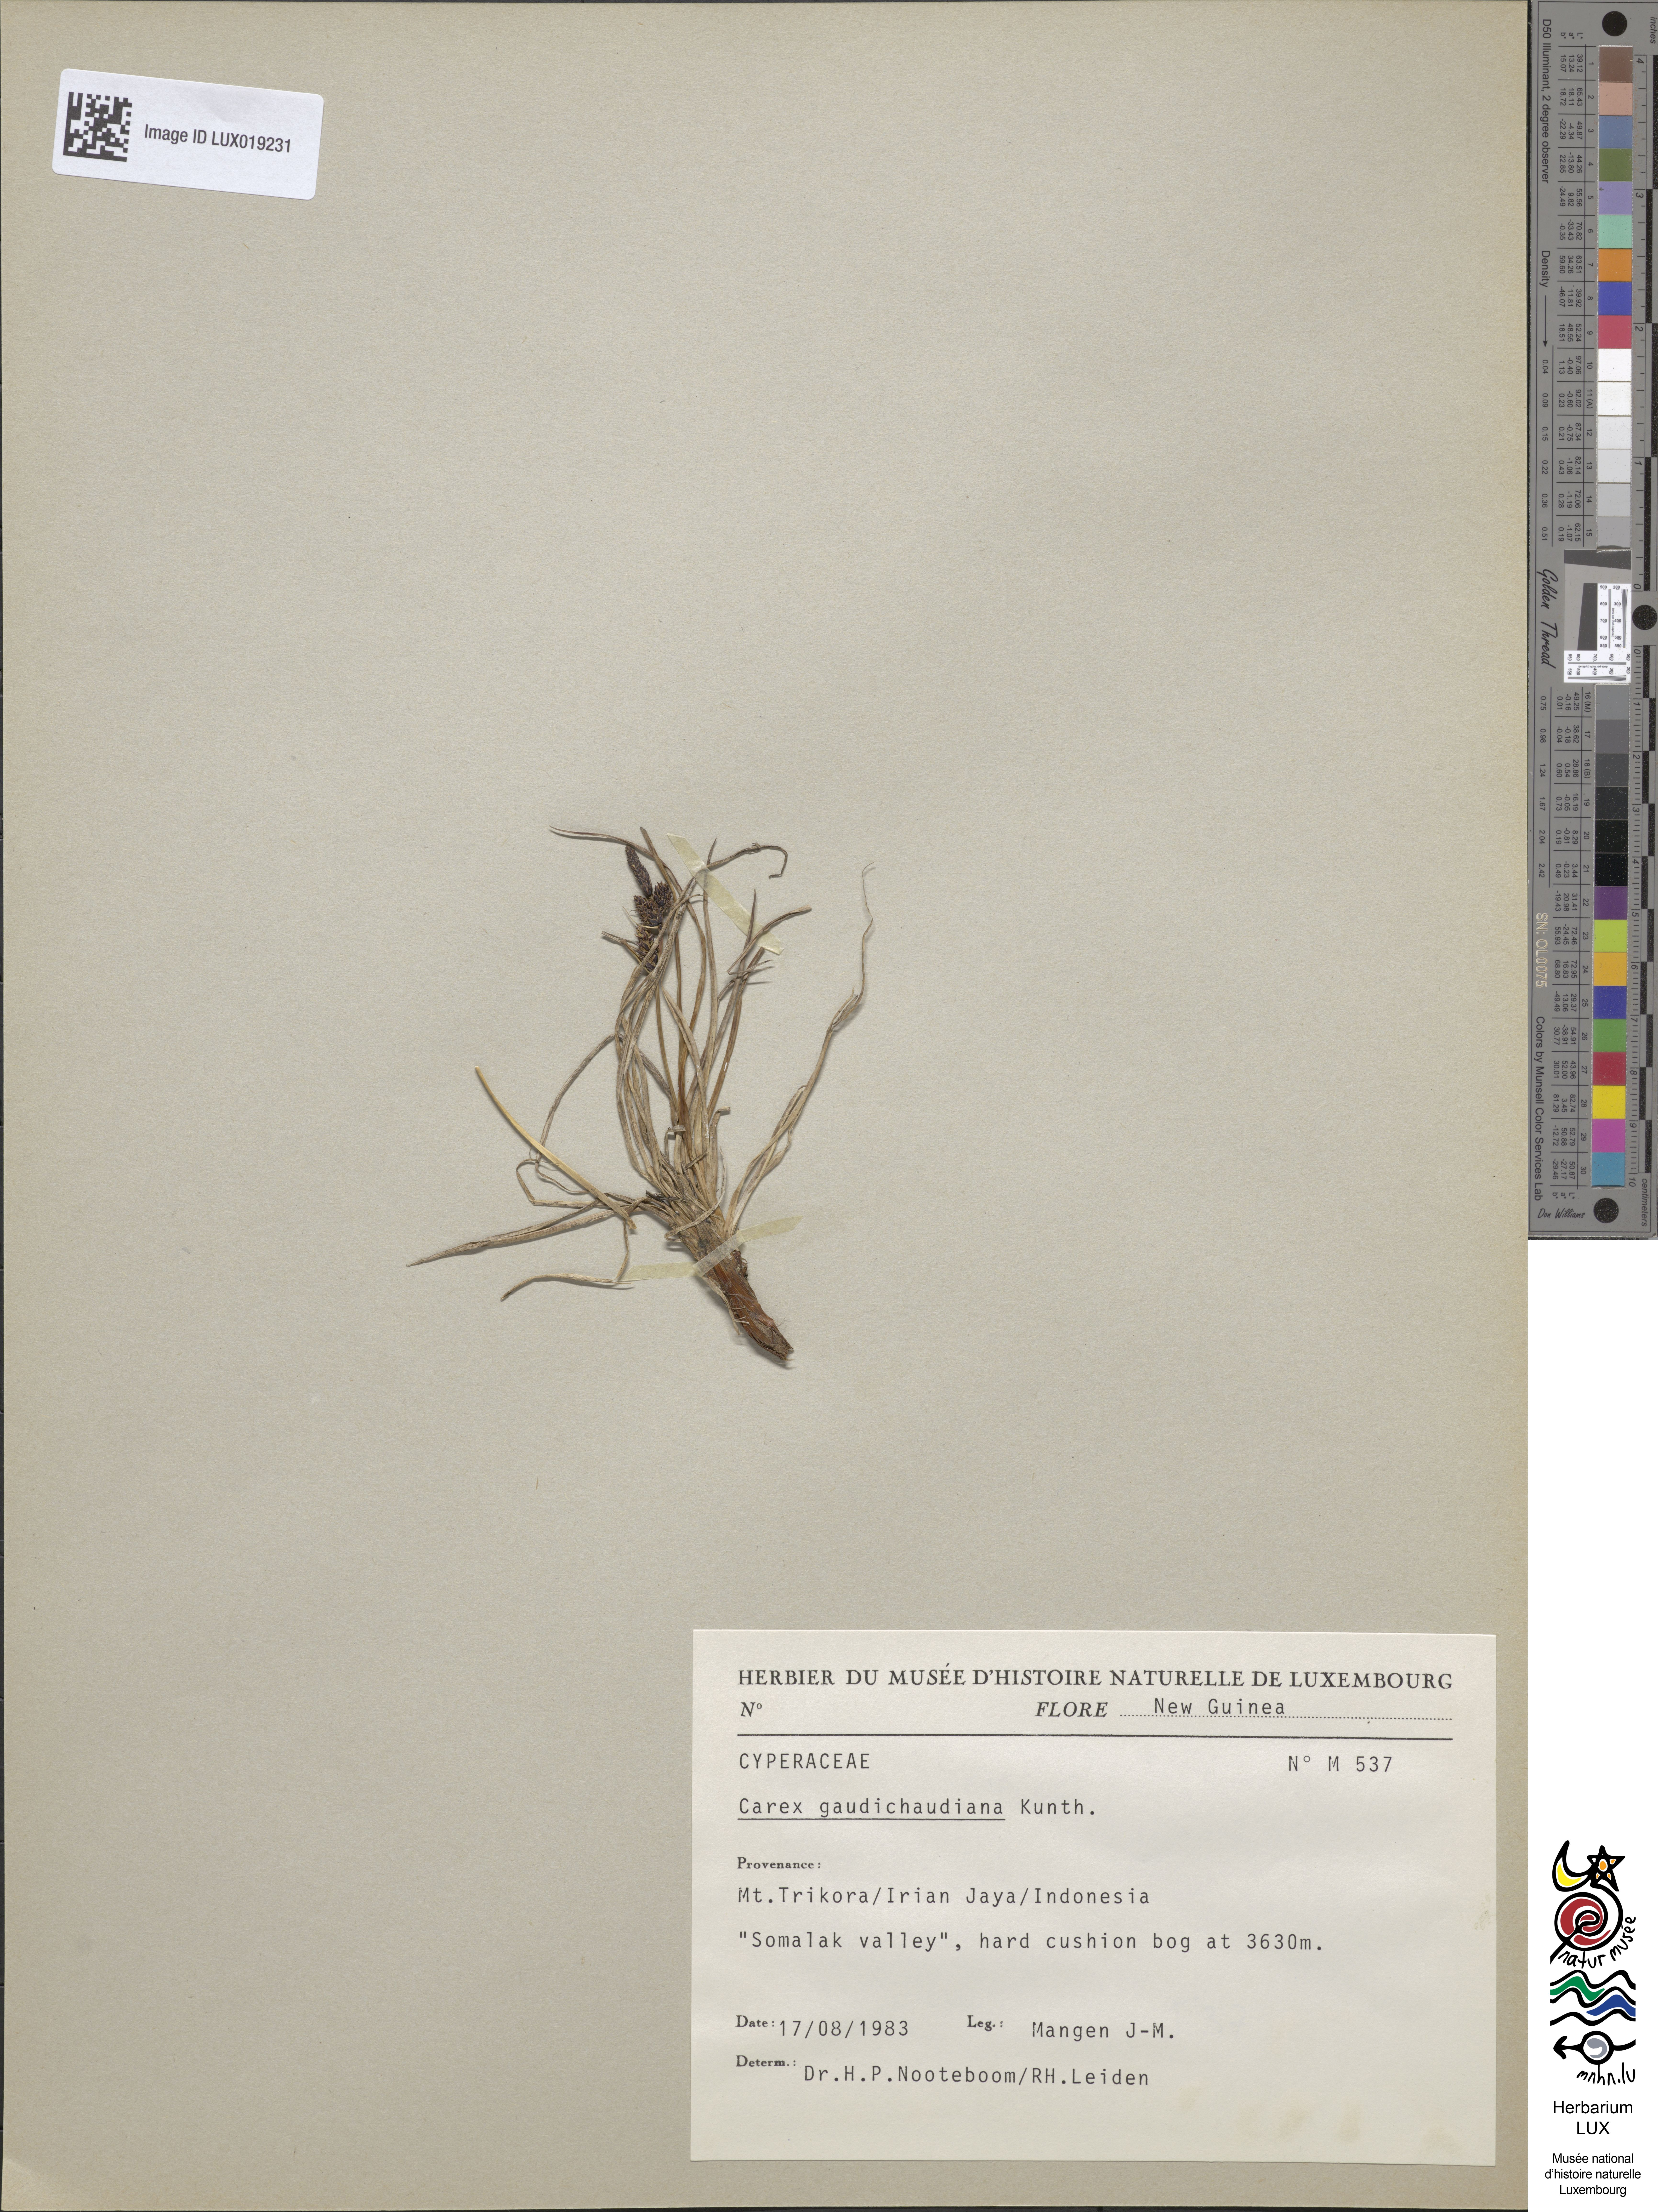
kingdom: Plantae
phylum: Tracheophyta
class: Liliopsida
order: Poales
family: Cyperaceae
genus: Carex
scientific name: Carex gaudichaudiana
